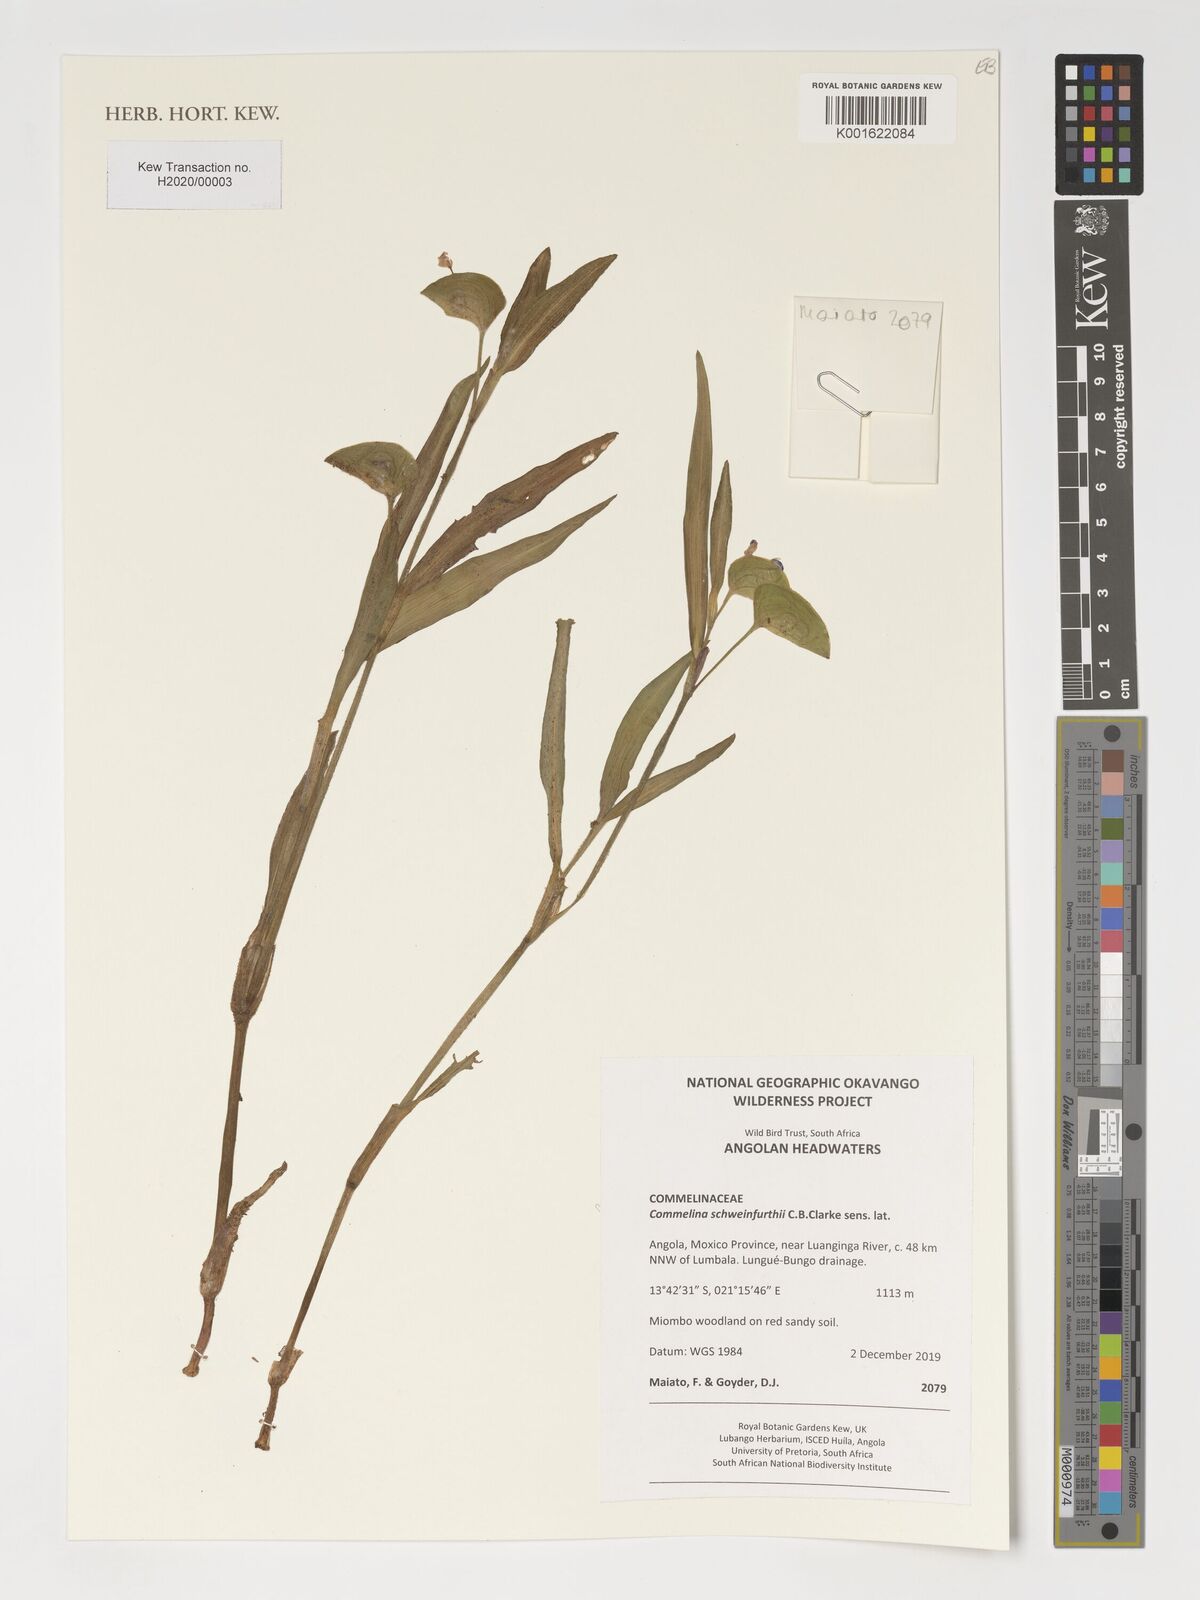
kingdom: Plantae
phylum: Tracheophyta
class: Liliopsida
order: Commelinales
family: Commelinaceae
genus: Commelina
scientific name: Commelina schweinfurthii
